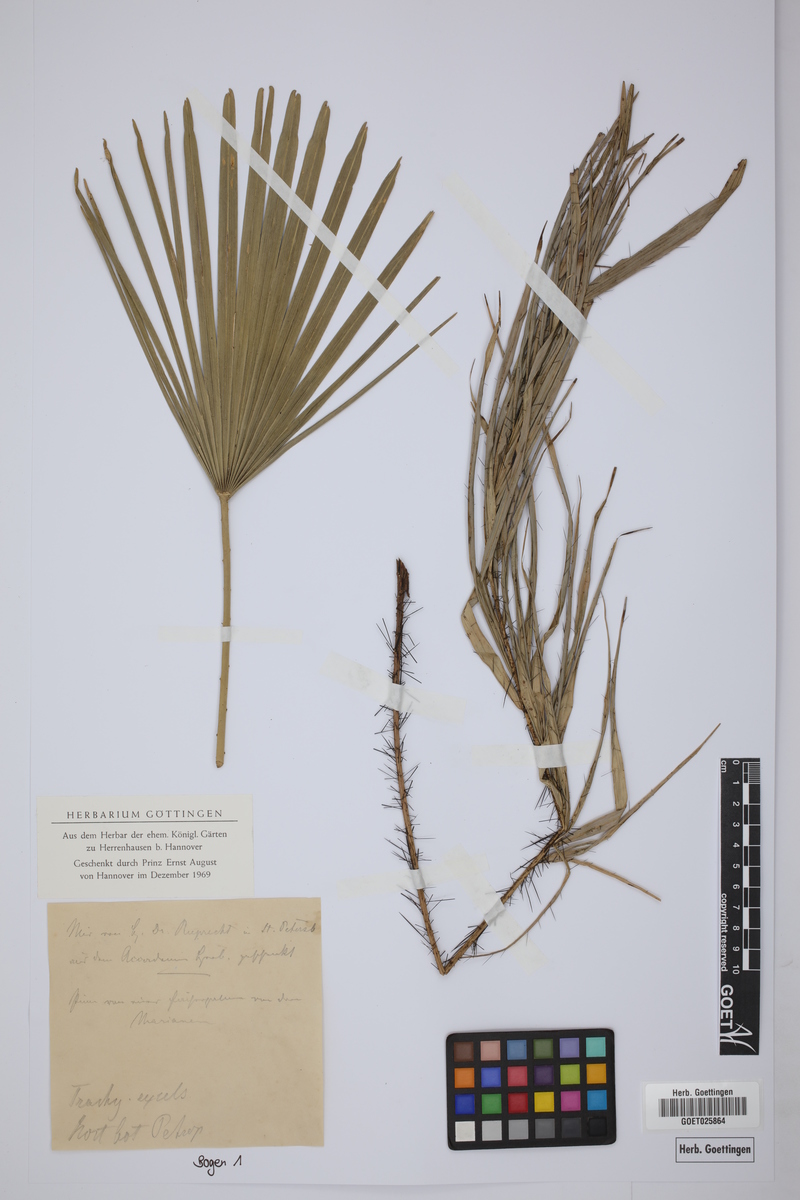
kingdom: Plantae
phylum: Tracheophyta
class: Liliopsida
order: Arecales
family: Arecaceae
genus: Rhapis
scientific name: Rhapis excelsa
